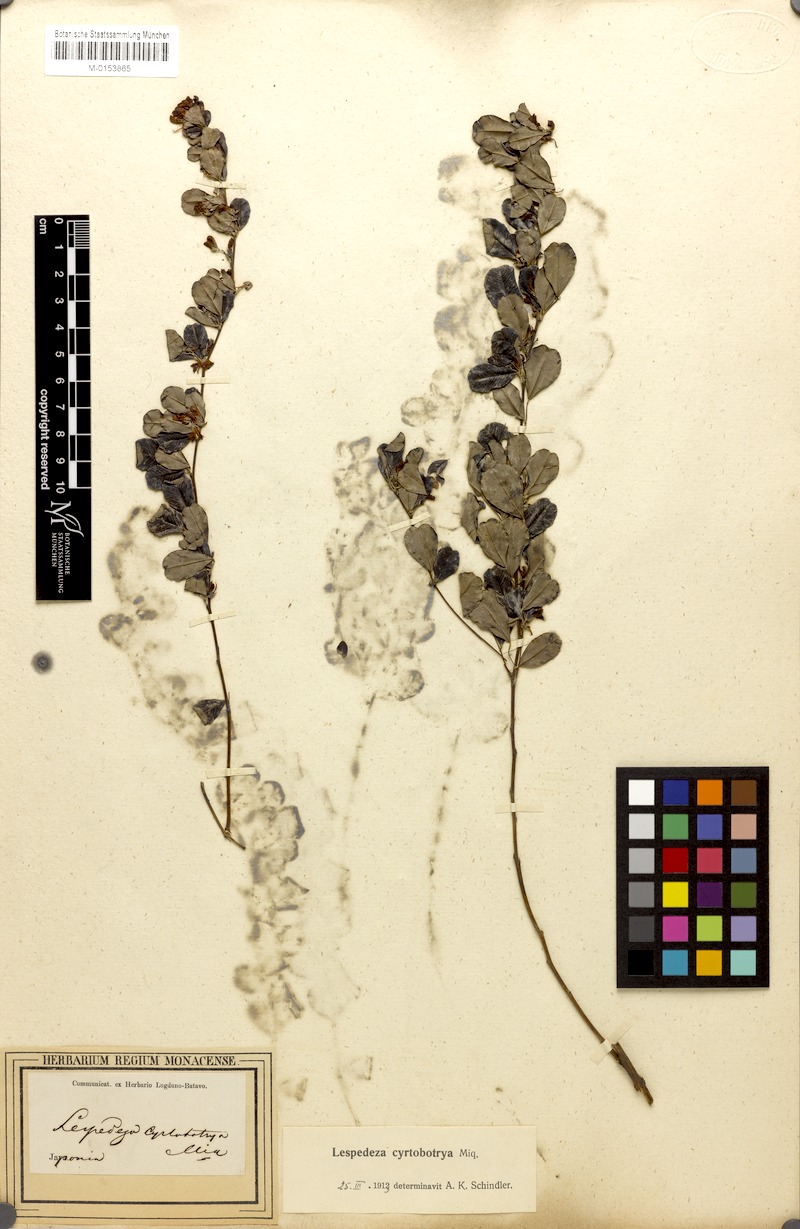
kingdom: Plantae
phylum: Tracheophyta
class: Magnoliopsida
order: Fabales
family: Fabaceae
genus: Lespedeza
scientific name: Lespedeza cyrtobotrya
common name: Leafy lespedeza
